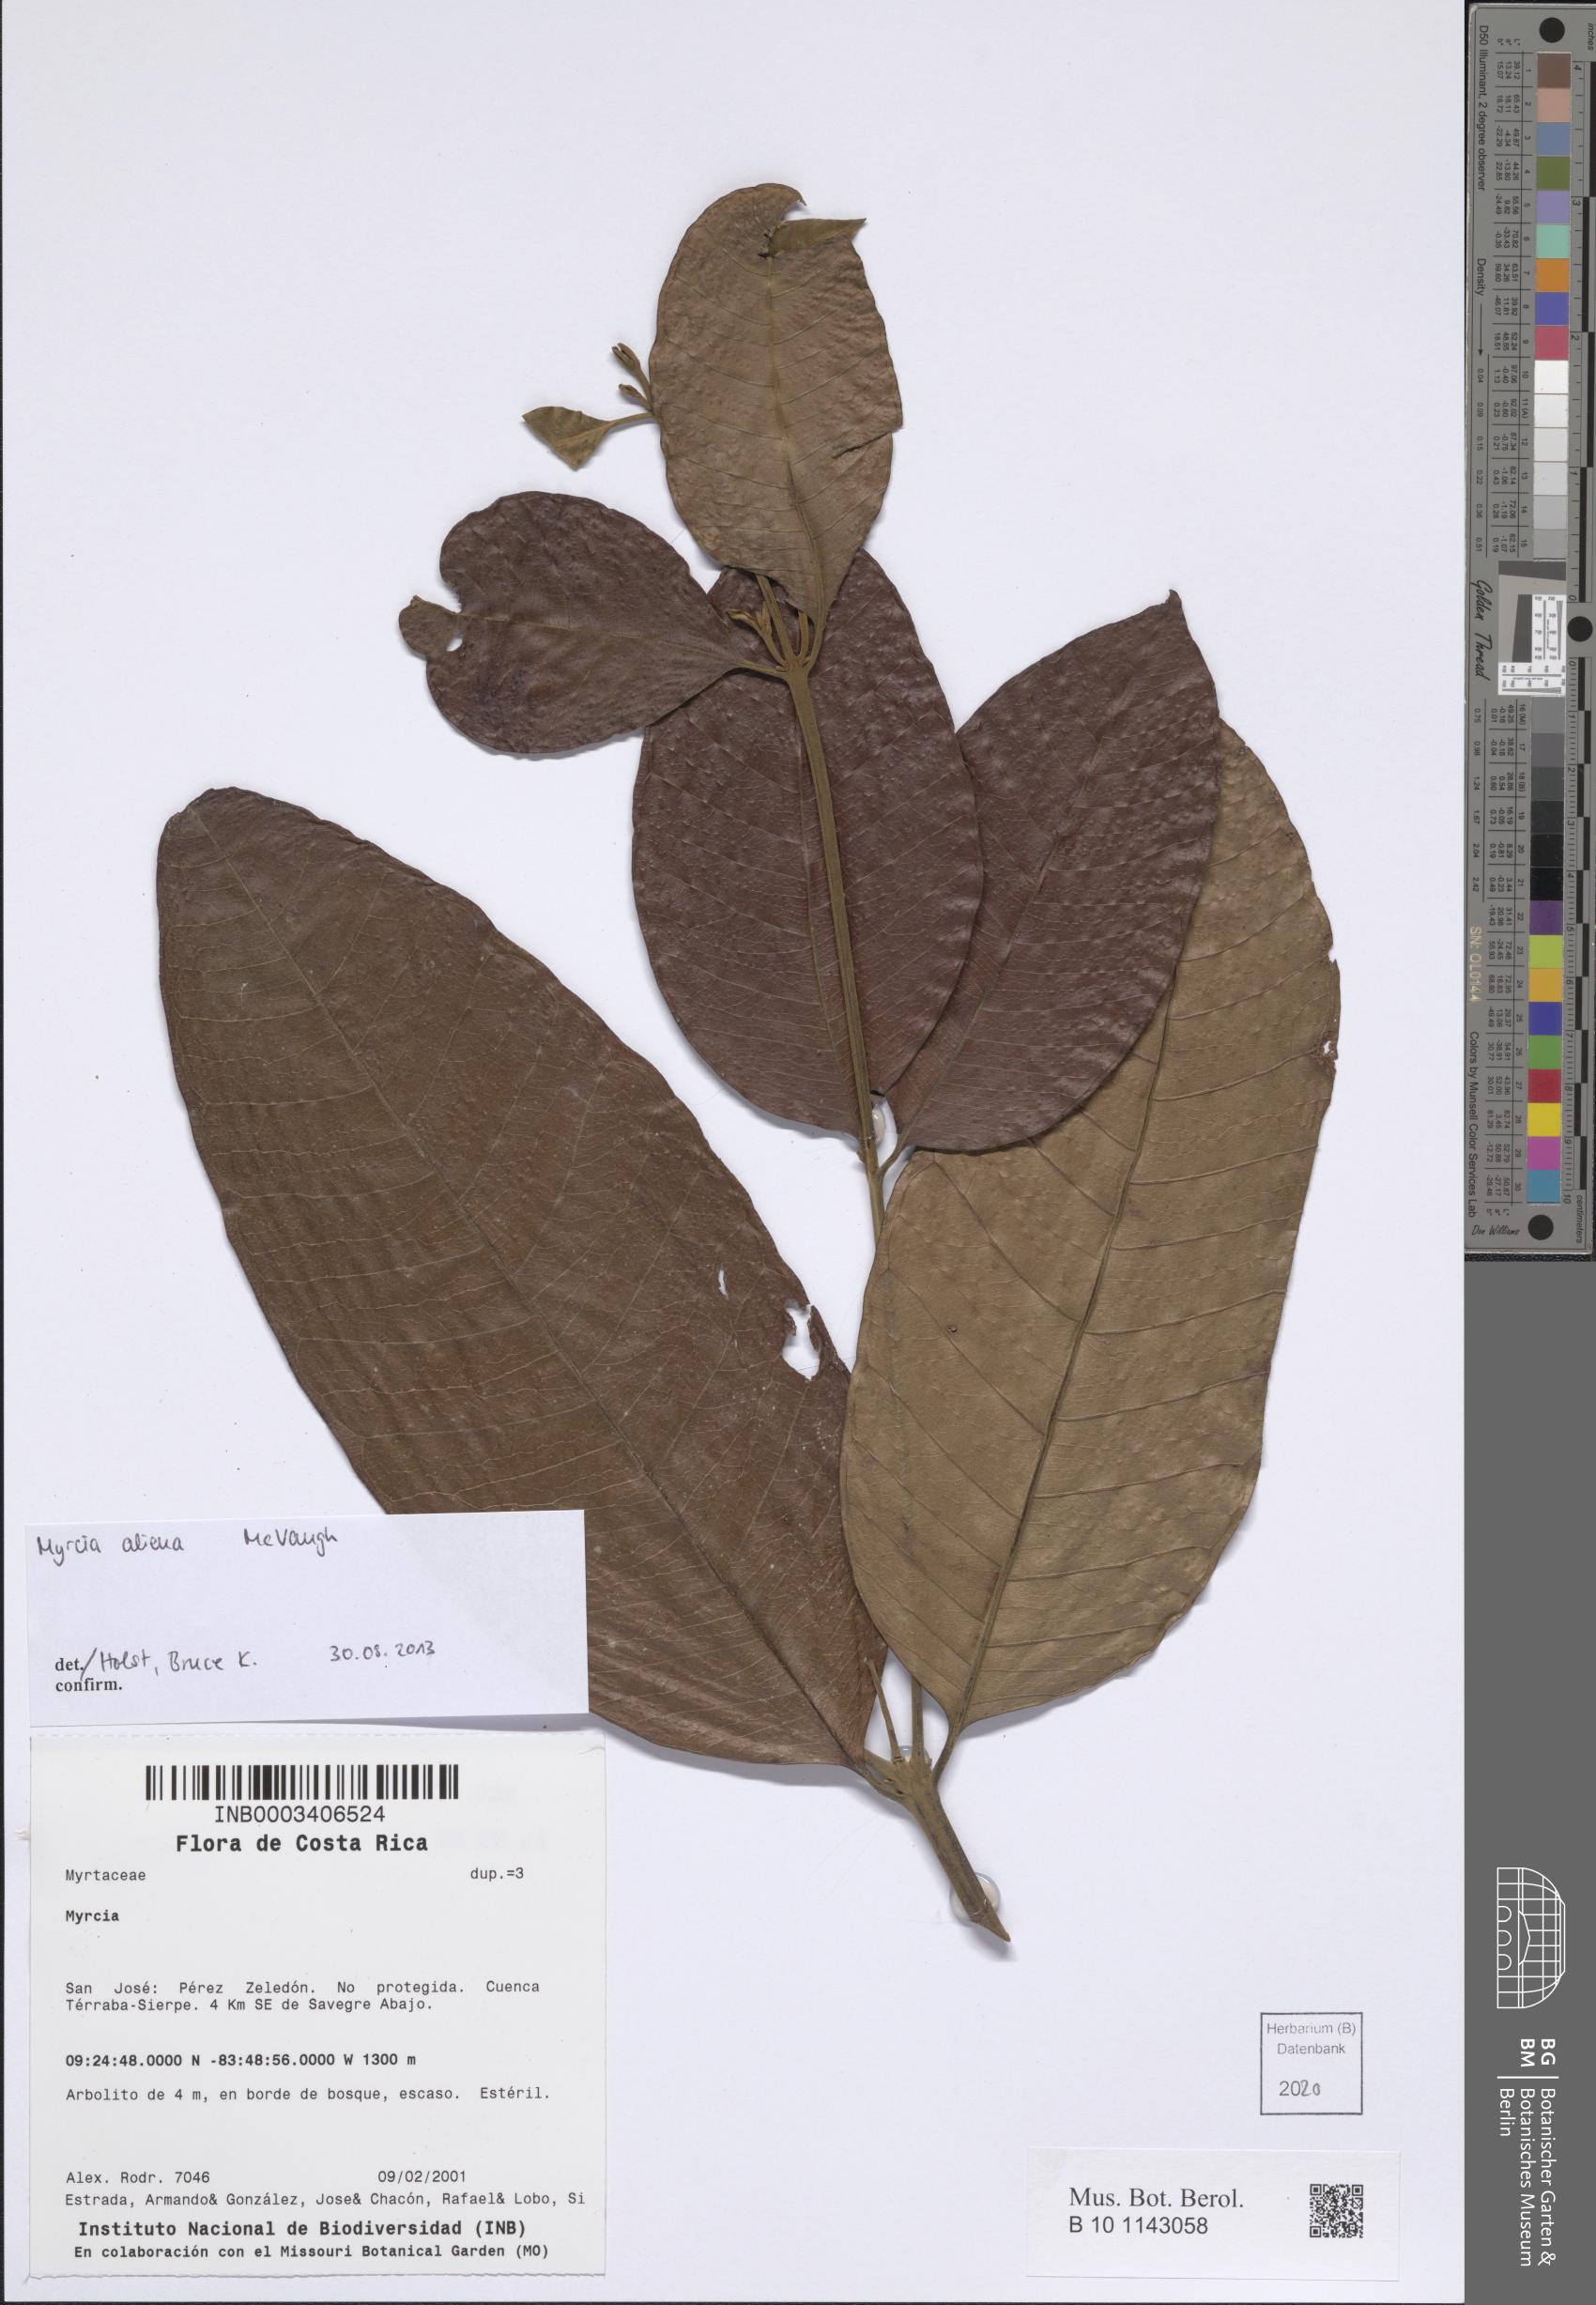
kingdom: Plantae
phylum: Tracheophyta
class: Magnoliopsida
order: Myrtales
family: Myrtaceae
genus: Myrcia
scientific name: Myrcia aliena
